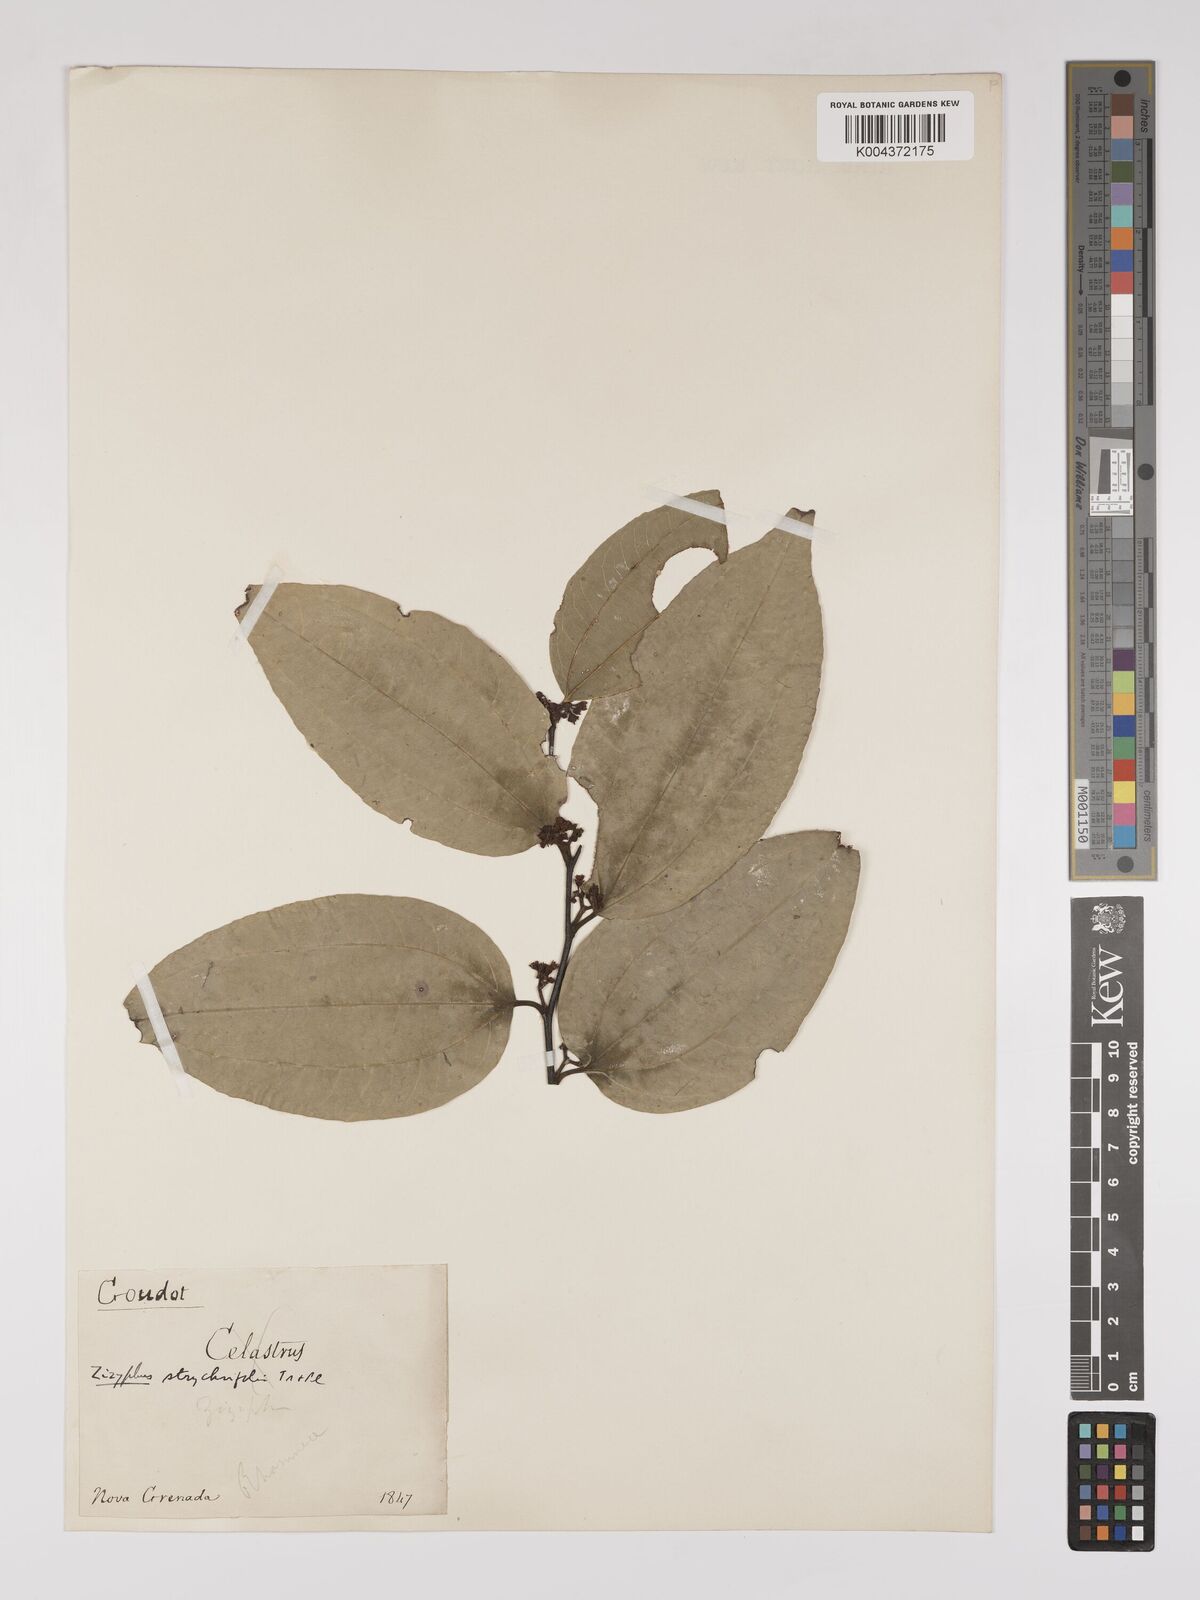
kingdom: Plantae
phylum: Tracheophyta
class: Magnoliopsida
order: Rosales
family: Rhamnaceae
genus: Sarcomphalus
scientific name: Sarcomphalus strychnifolius
